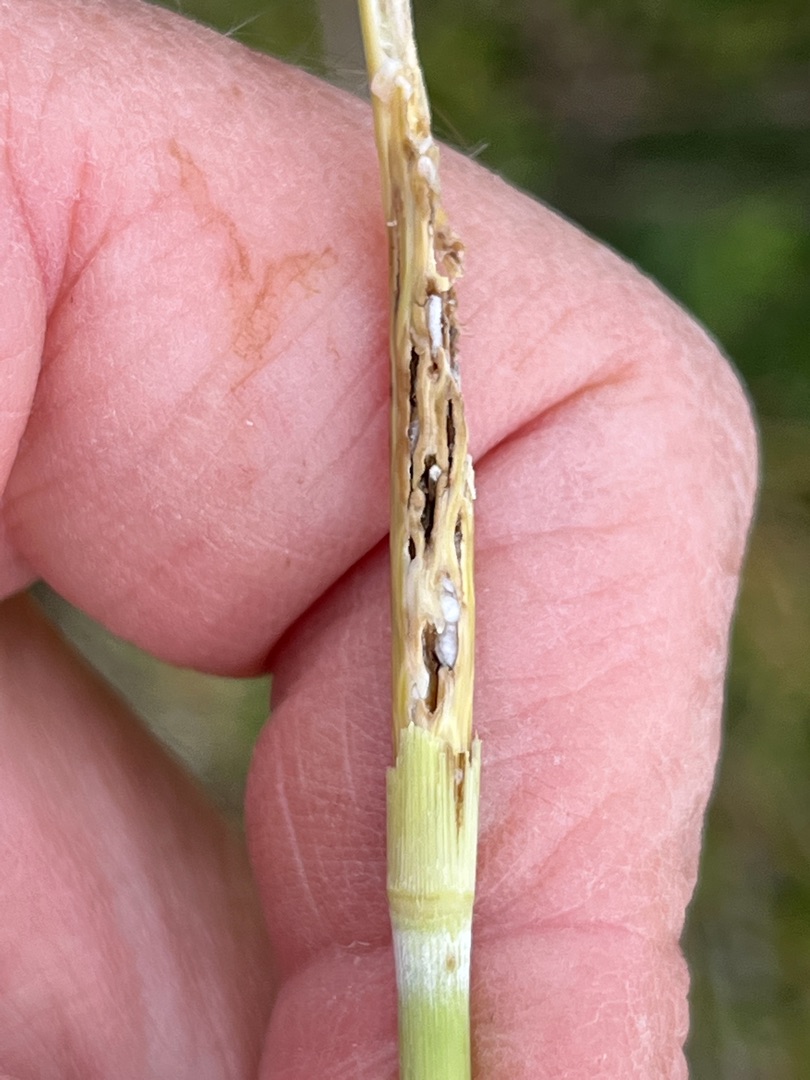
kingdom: Animalia
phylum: Arthropoda
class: Insecta
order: Diptera
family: Cecidomyiidae
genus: Giraudiella
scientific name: Giraudiella inclusa
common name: Riskorngalmyg
